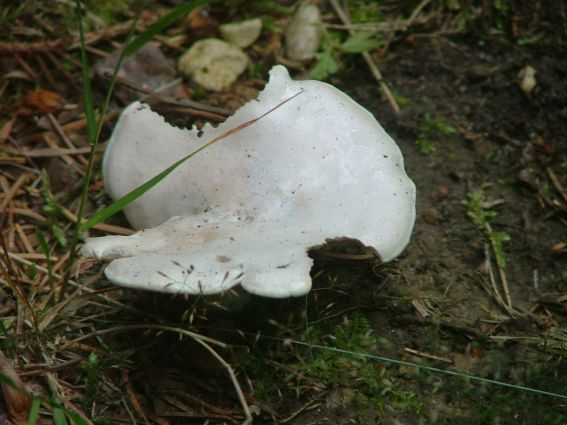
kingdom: Fungi
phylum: Basidiomycota
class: Agaricomycetes
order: Agaricales
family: Entolomataceae
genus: Clitopilus
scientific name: Clitopilus prunulus
